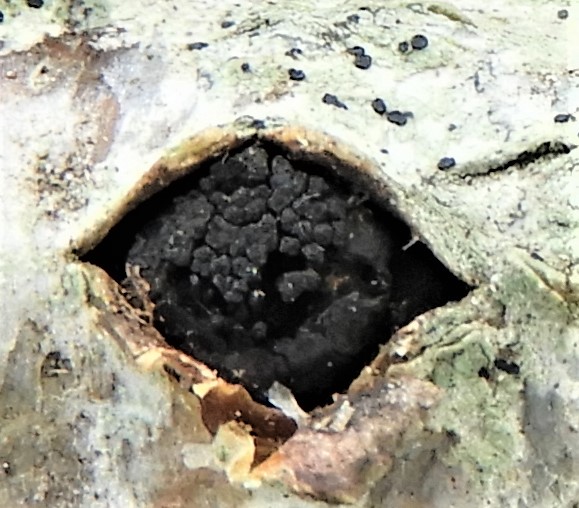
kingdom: Fungi
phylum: Ascomycota
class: Sordariomycetes
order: Xylariales
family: Diatrypaceae
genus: Eutypella
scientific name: Eutypella sorbi
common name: rønne-kulskorpe
